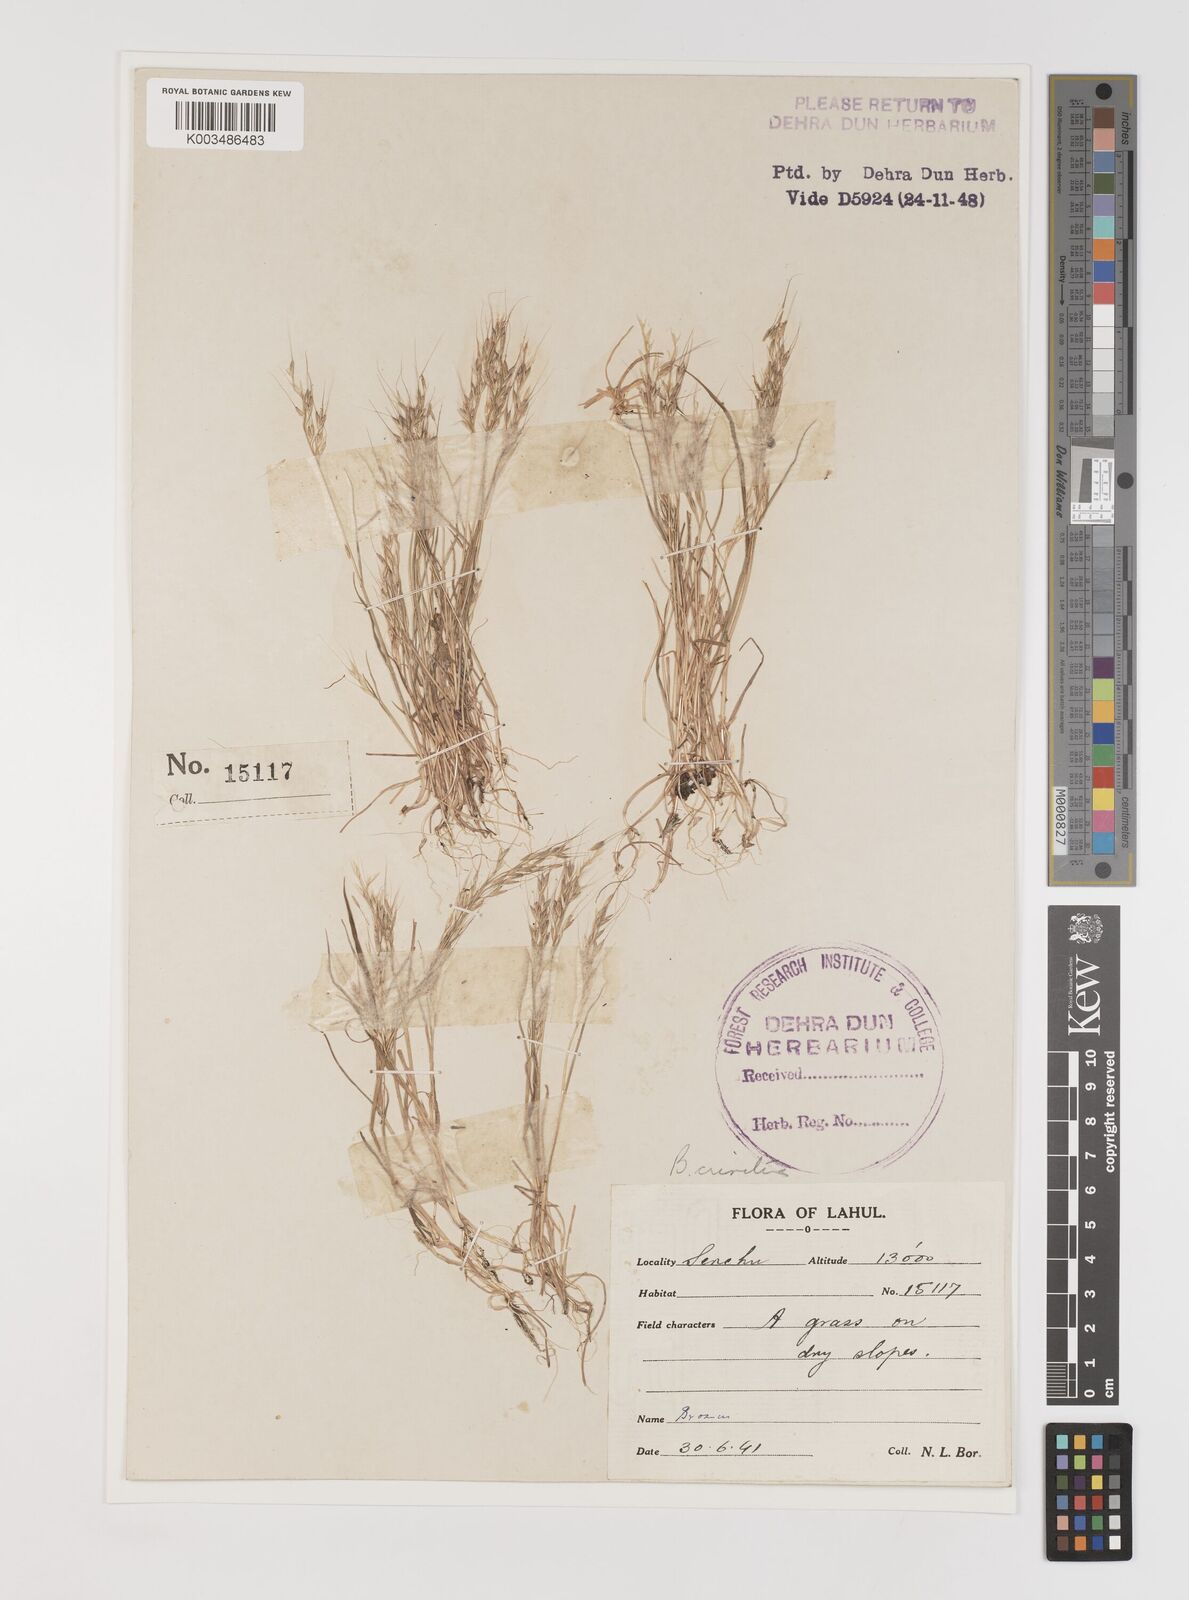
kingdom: Plantae
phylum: Tracheophyta
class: Liliopsida
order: Poales
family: Poaceae
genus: Bromus
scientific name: Bromus gracillimus
